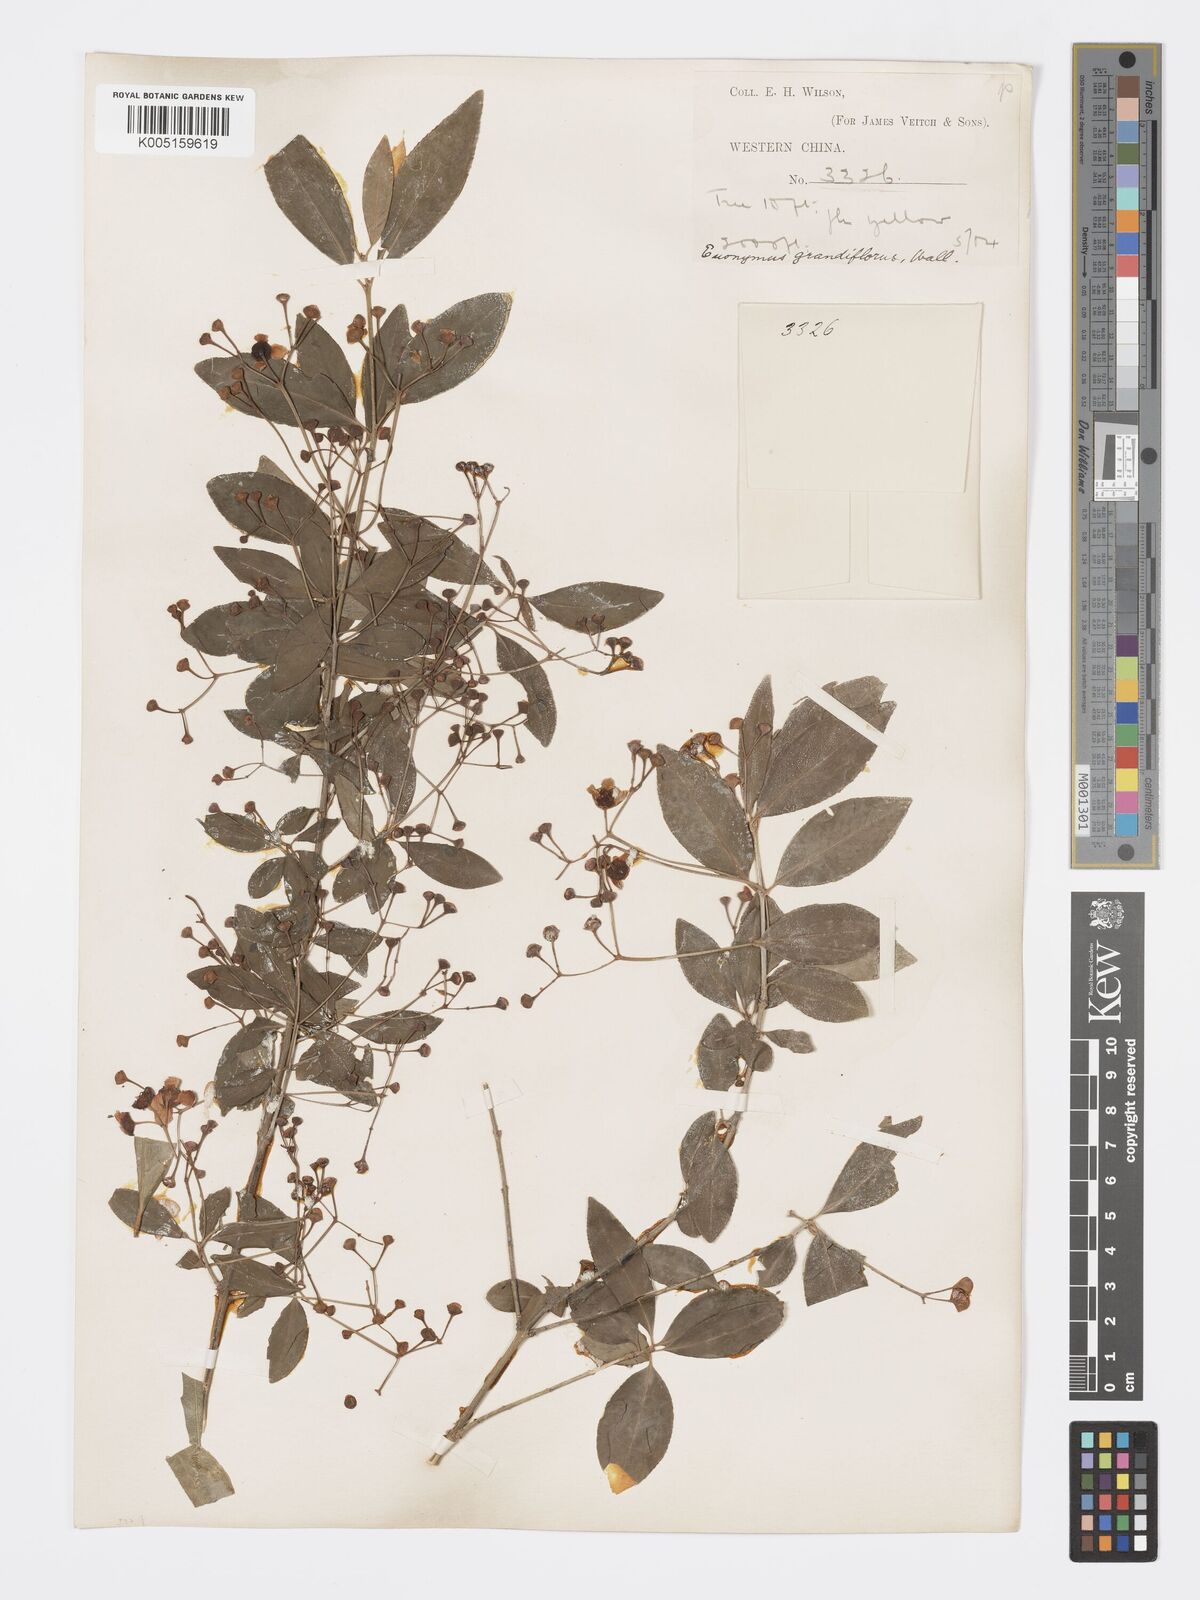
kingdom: Plantae
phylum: Tracheophyta
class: Magnoliopsida
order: Celastrales
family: Celastraceae
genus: Euonymus
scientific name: Euonymus grandiflorus
